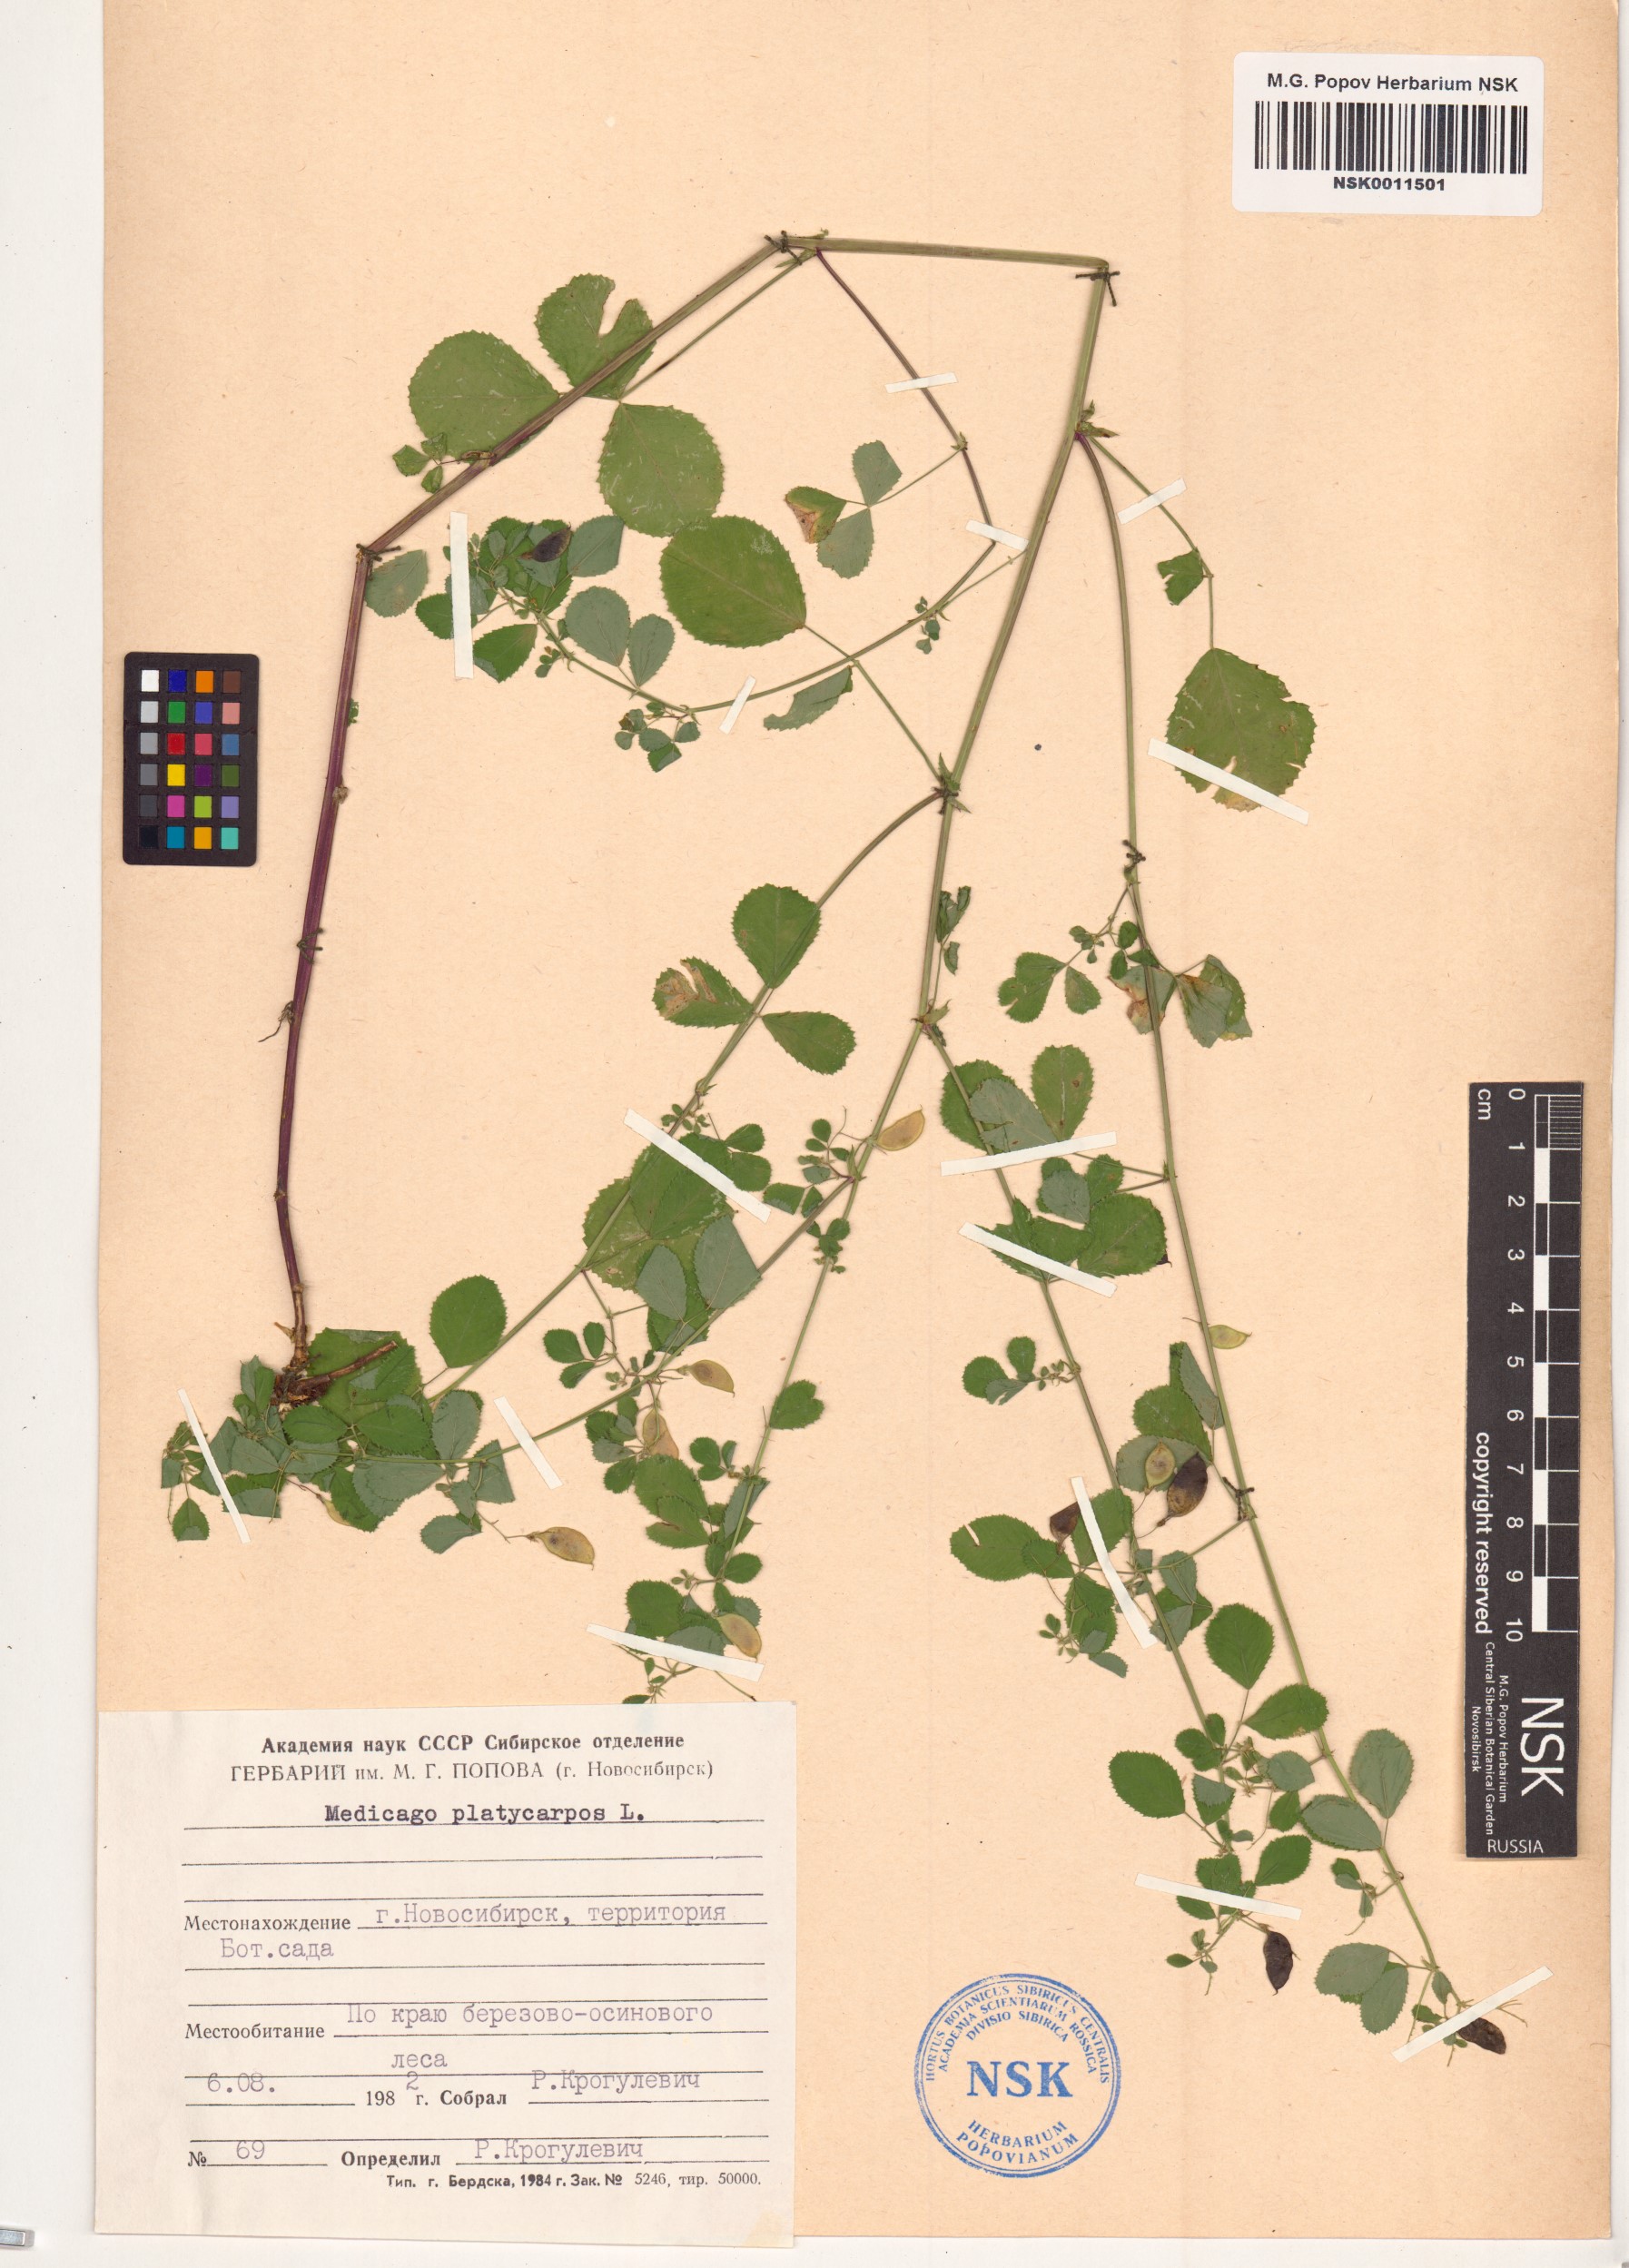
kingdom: Plantae
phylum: Tracheophyta
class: Magnoliopsida
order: Fabales
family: Fabaceae
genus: Medicago
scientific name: Medicago platycarpos
